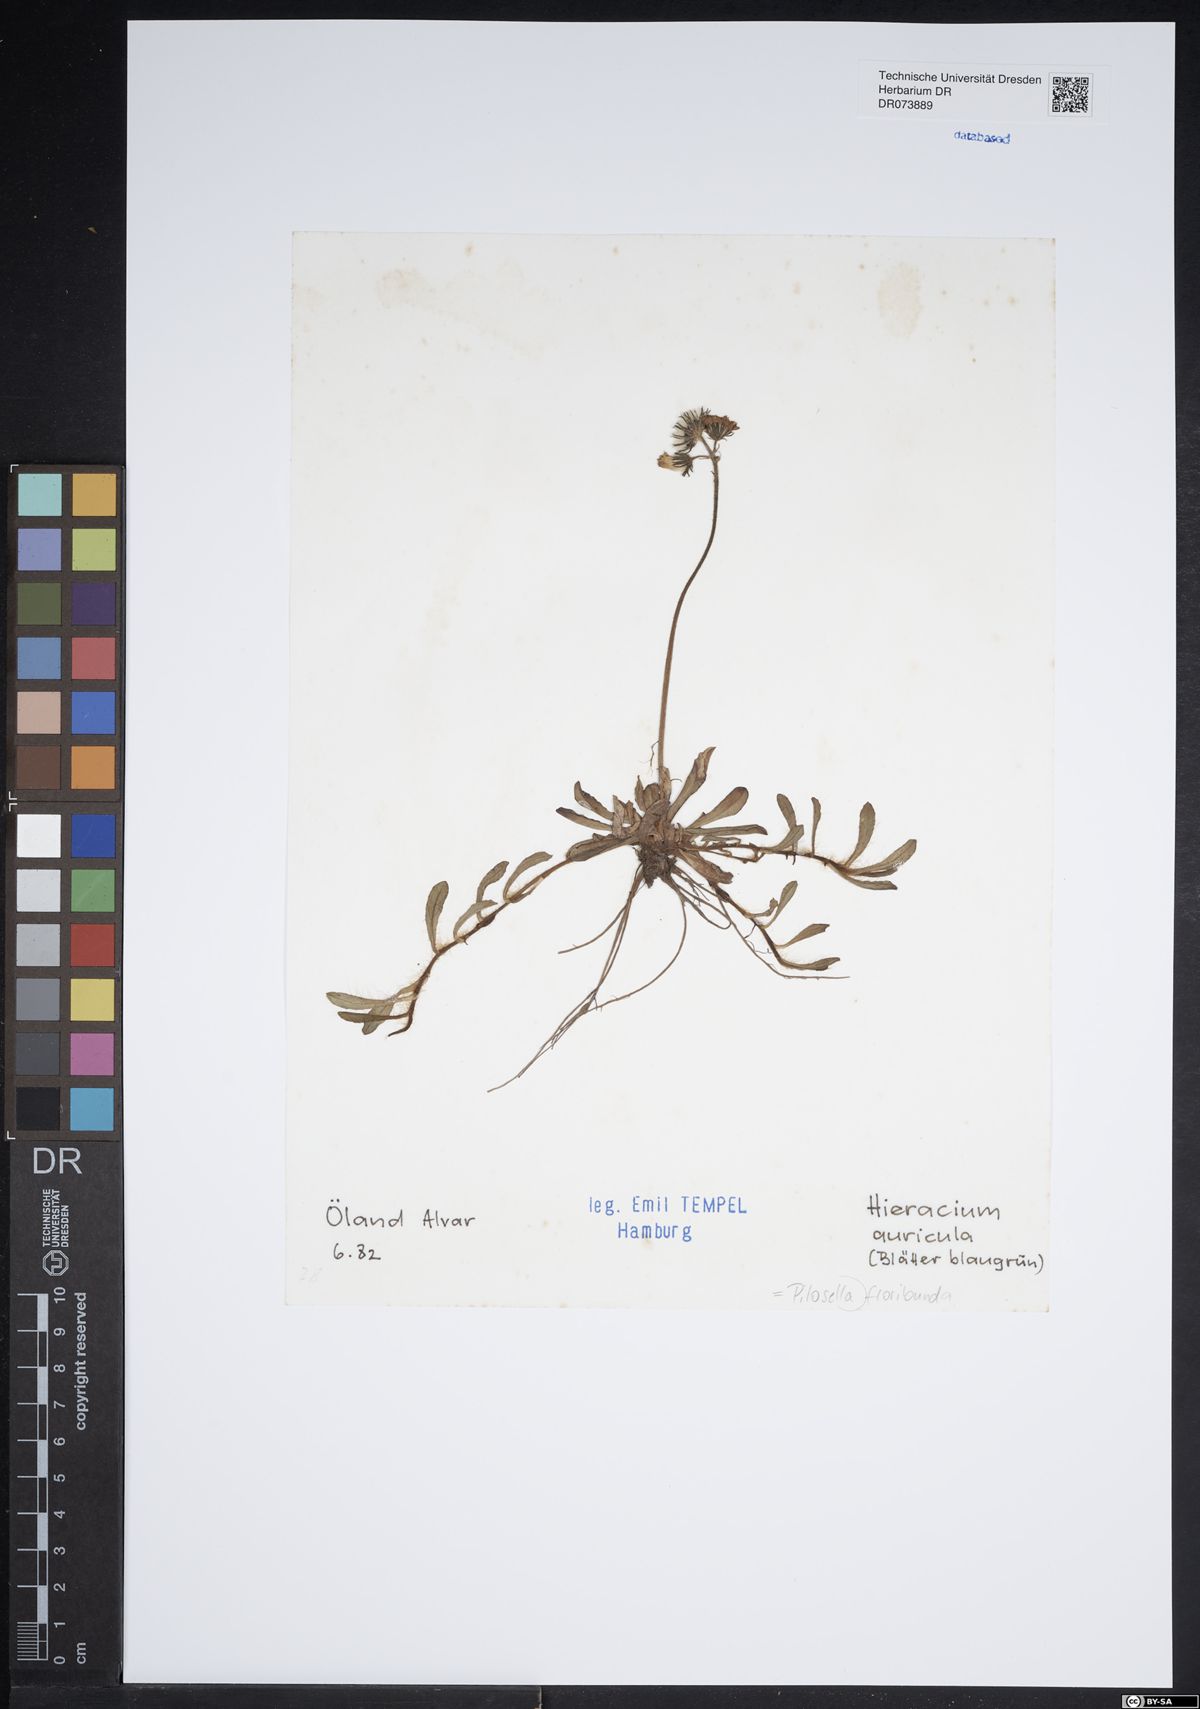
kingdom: Plantae
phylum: Tracheophyta
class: Magnoliopsida
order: Asterales
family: Asteraceae
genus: Pilosella
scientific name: Pilosella floribunda
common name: Glaucous hawkweed
